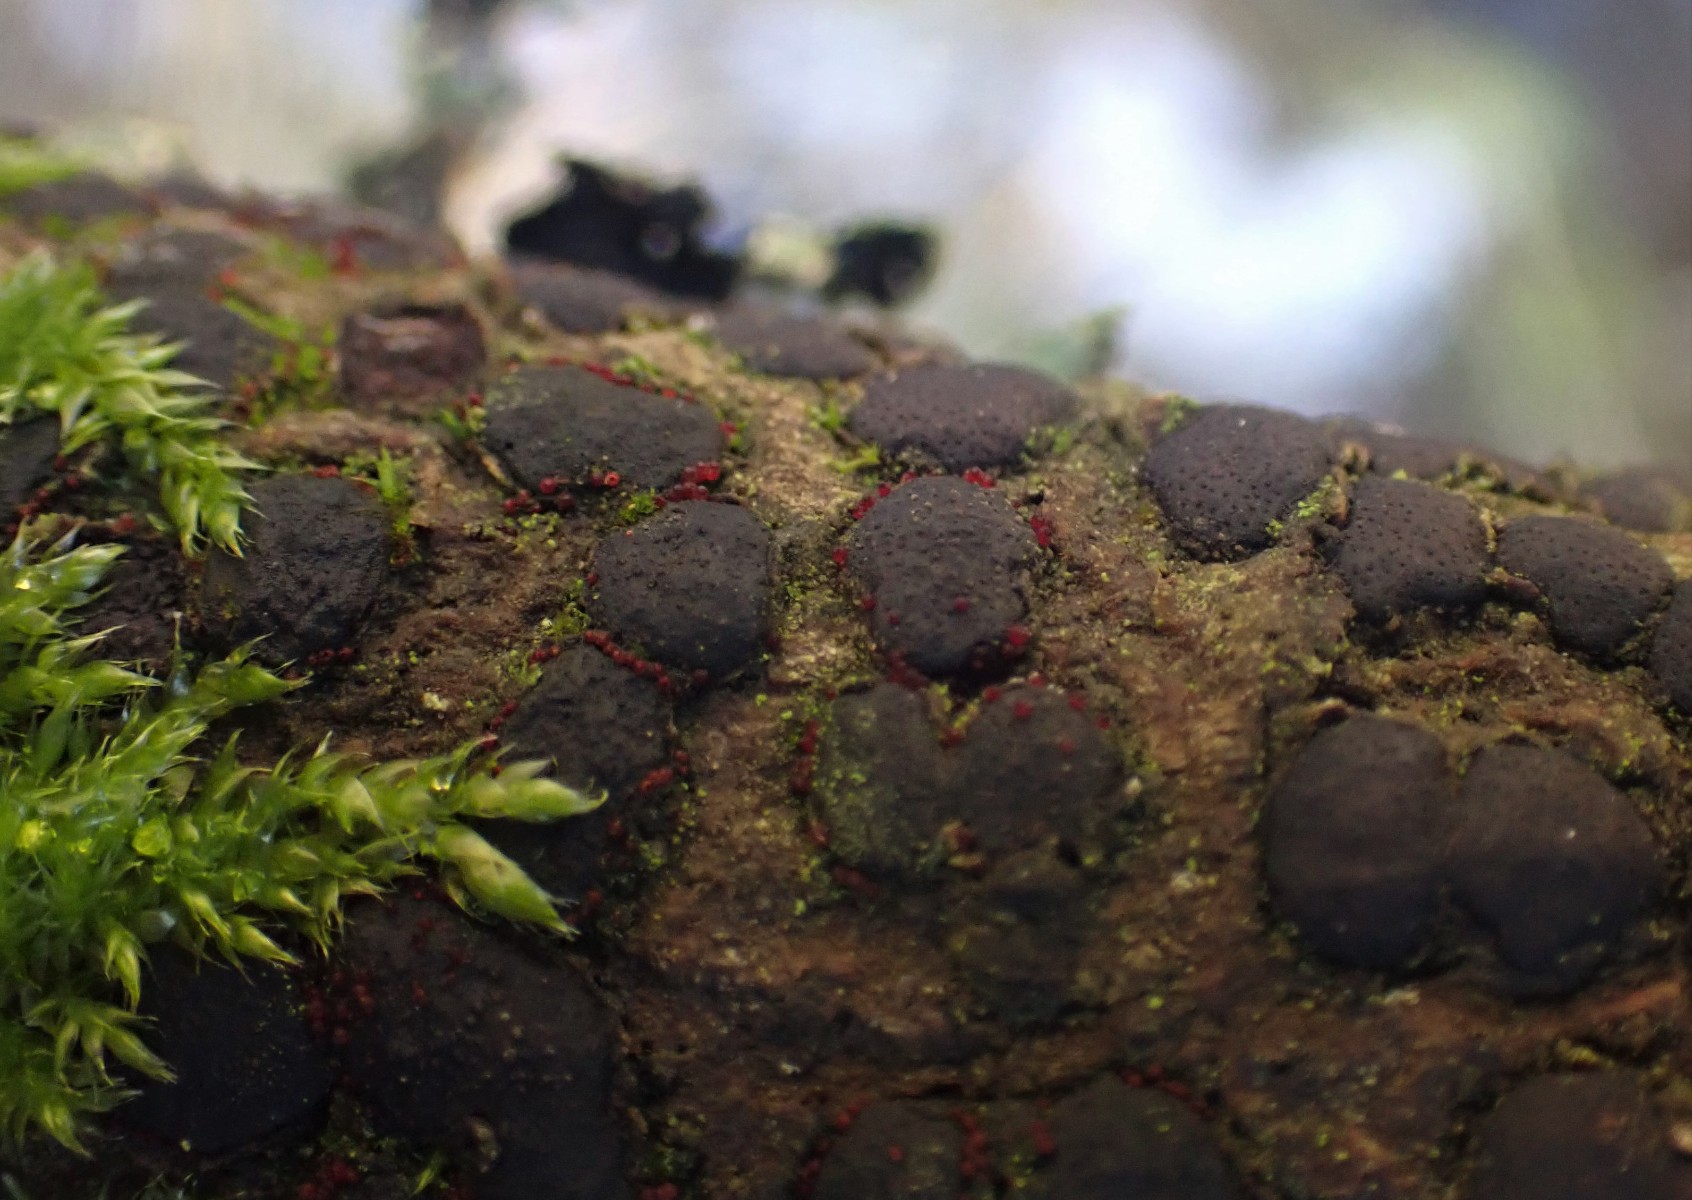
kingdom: Fungi
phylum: Ascomycota
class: Sordariomycetes
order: Hypocreales
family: Nectriaceae
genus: Dialonectria
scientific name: Dialonectria diatrypicola
